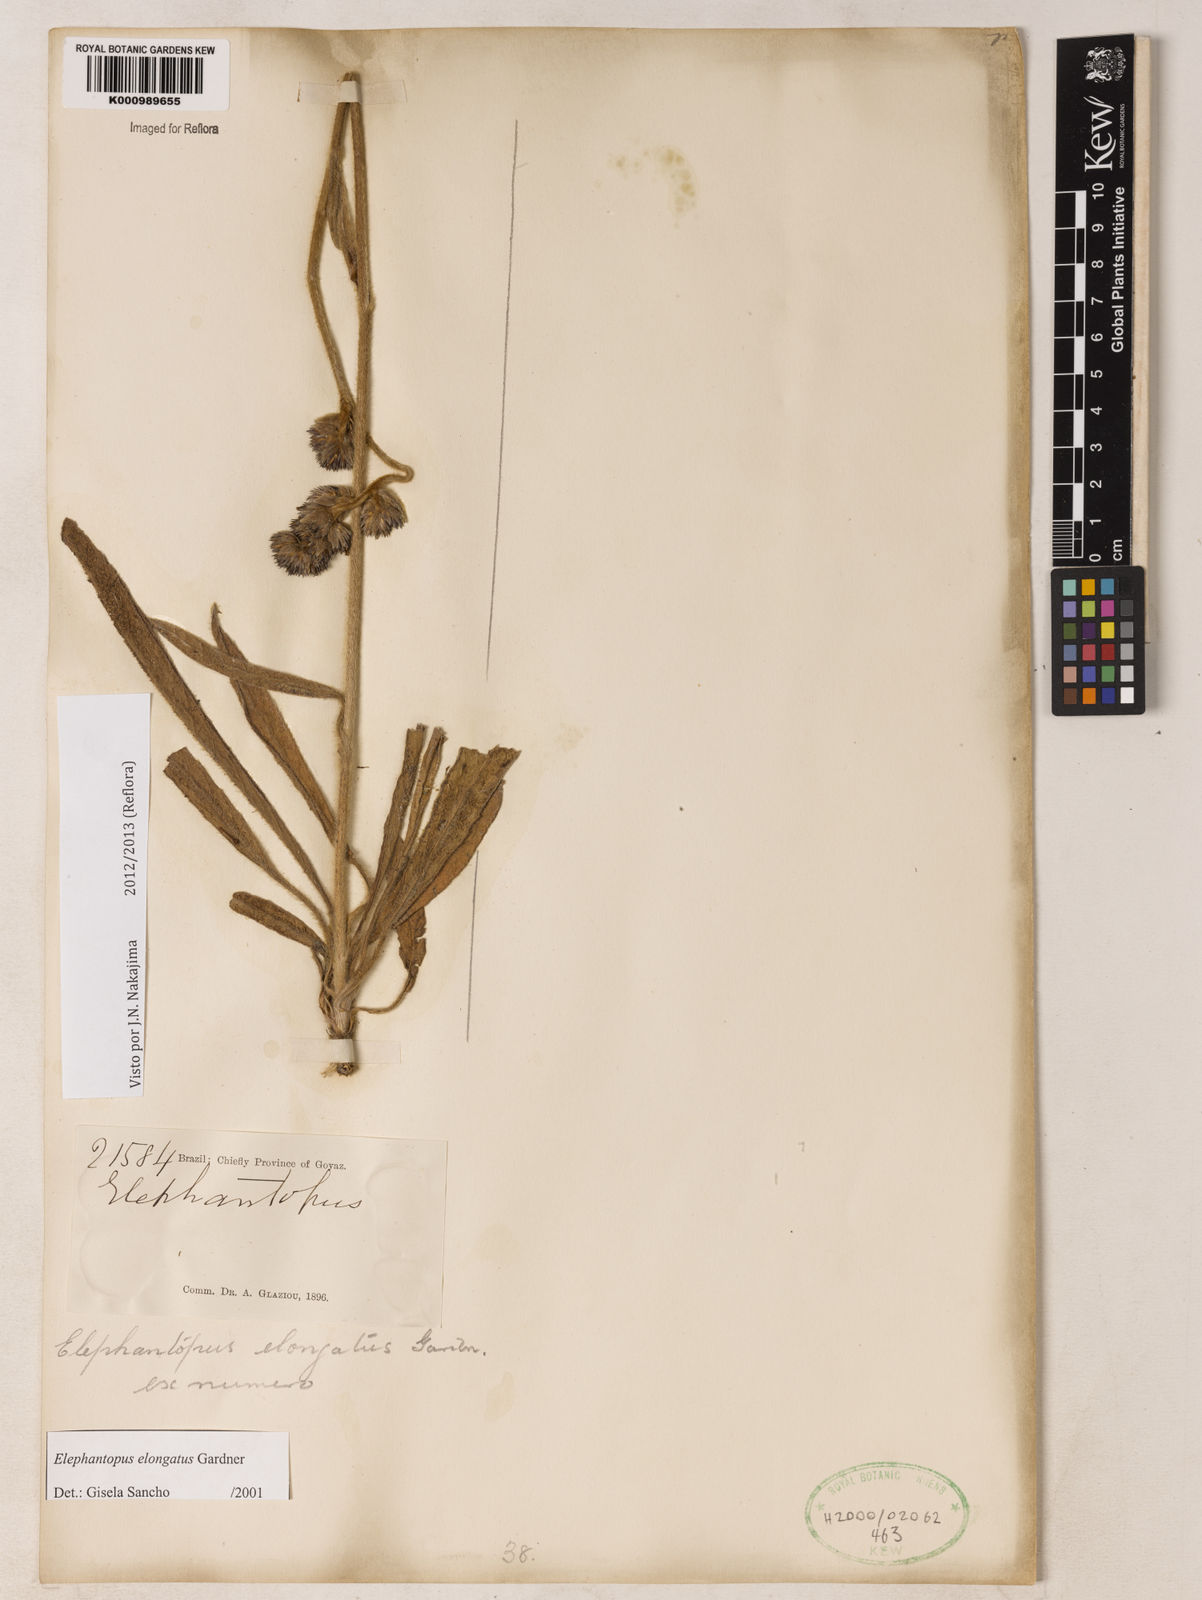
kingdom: Plantae
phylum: Tracheophyta
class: Magnoliopsida
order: Asterales
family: Asteraceae
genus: Elephantopus
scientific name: Elephantopus elongatus
